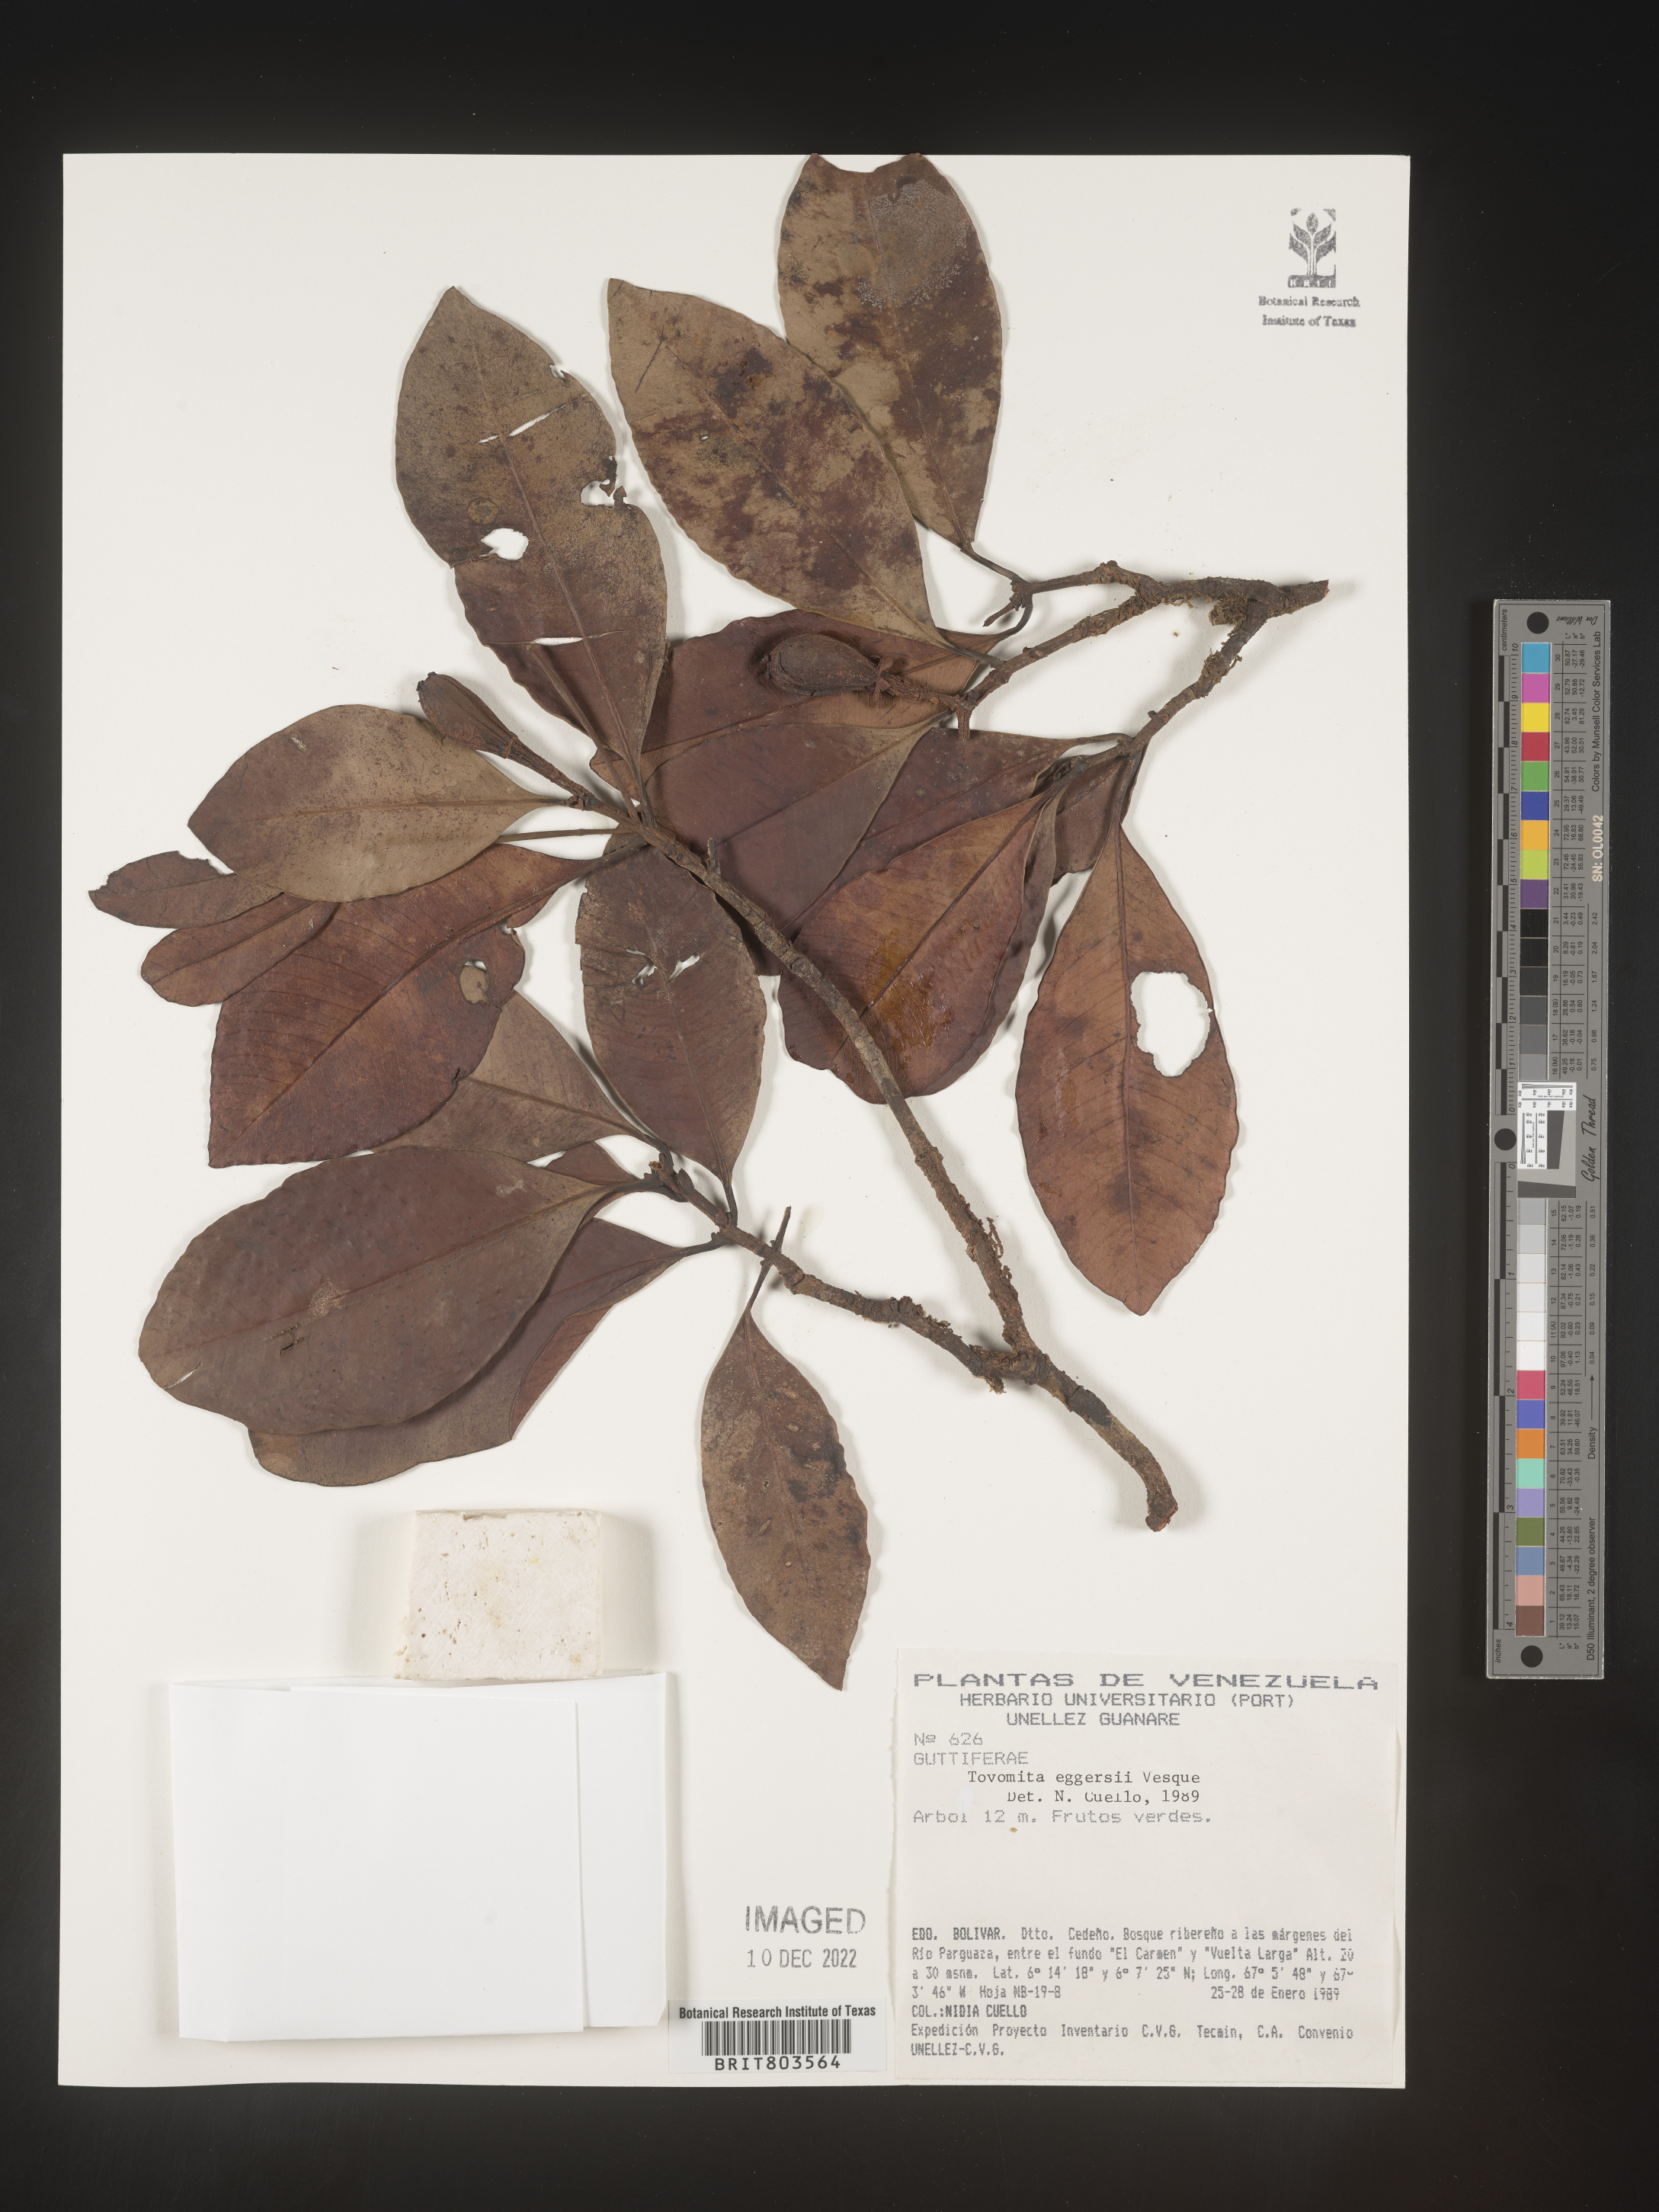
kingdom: Plantae
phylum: Tracheophyta
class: Magnoliopsida
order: Malpighiales
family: Clusiaceae
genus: Tovomita
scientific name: Tovomita
